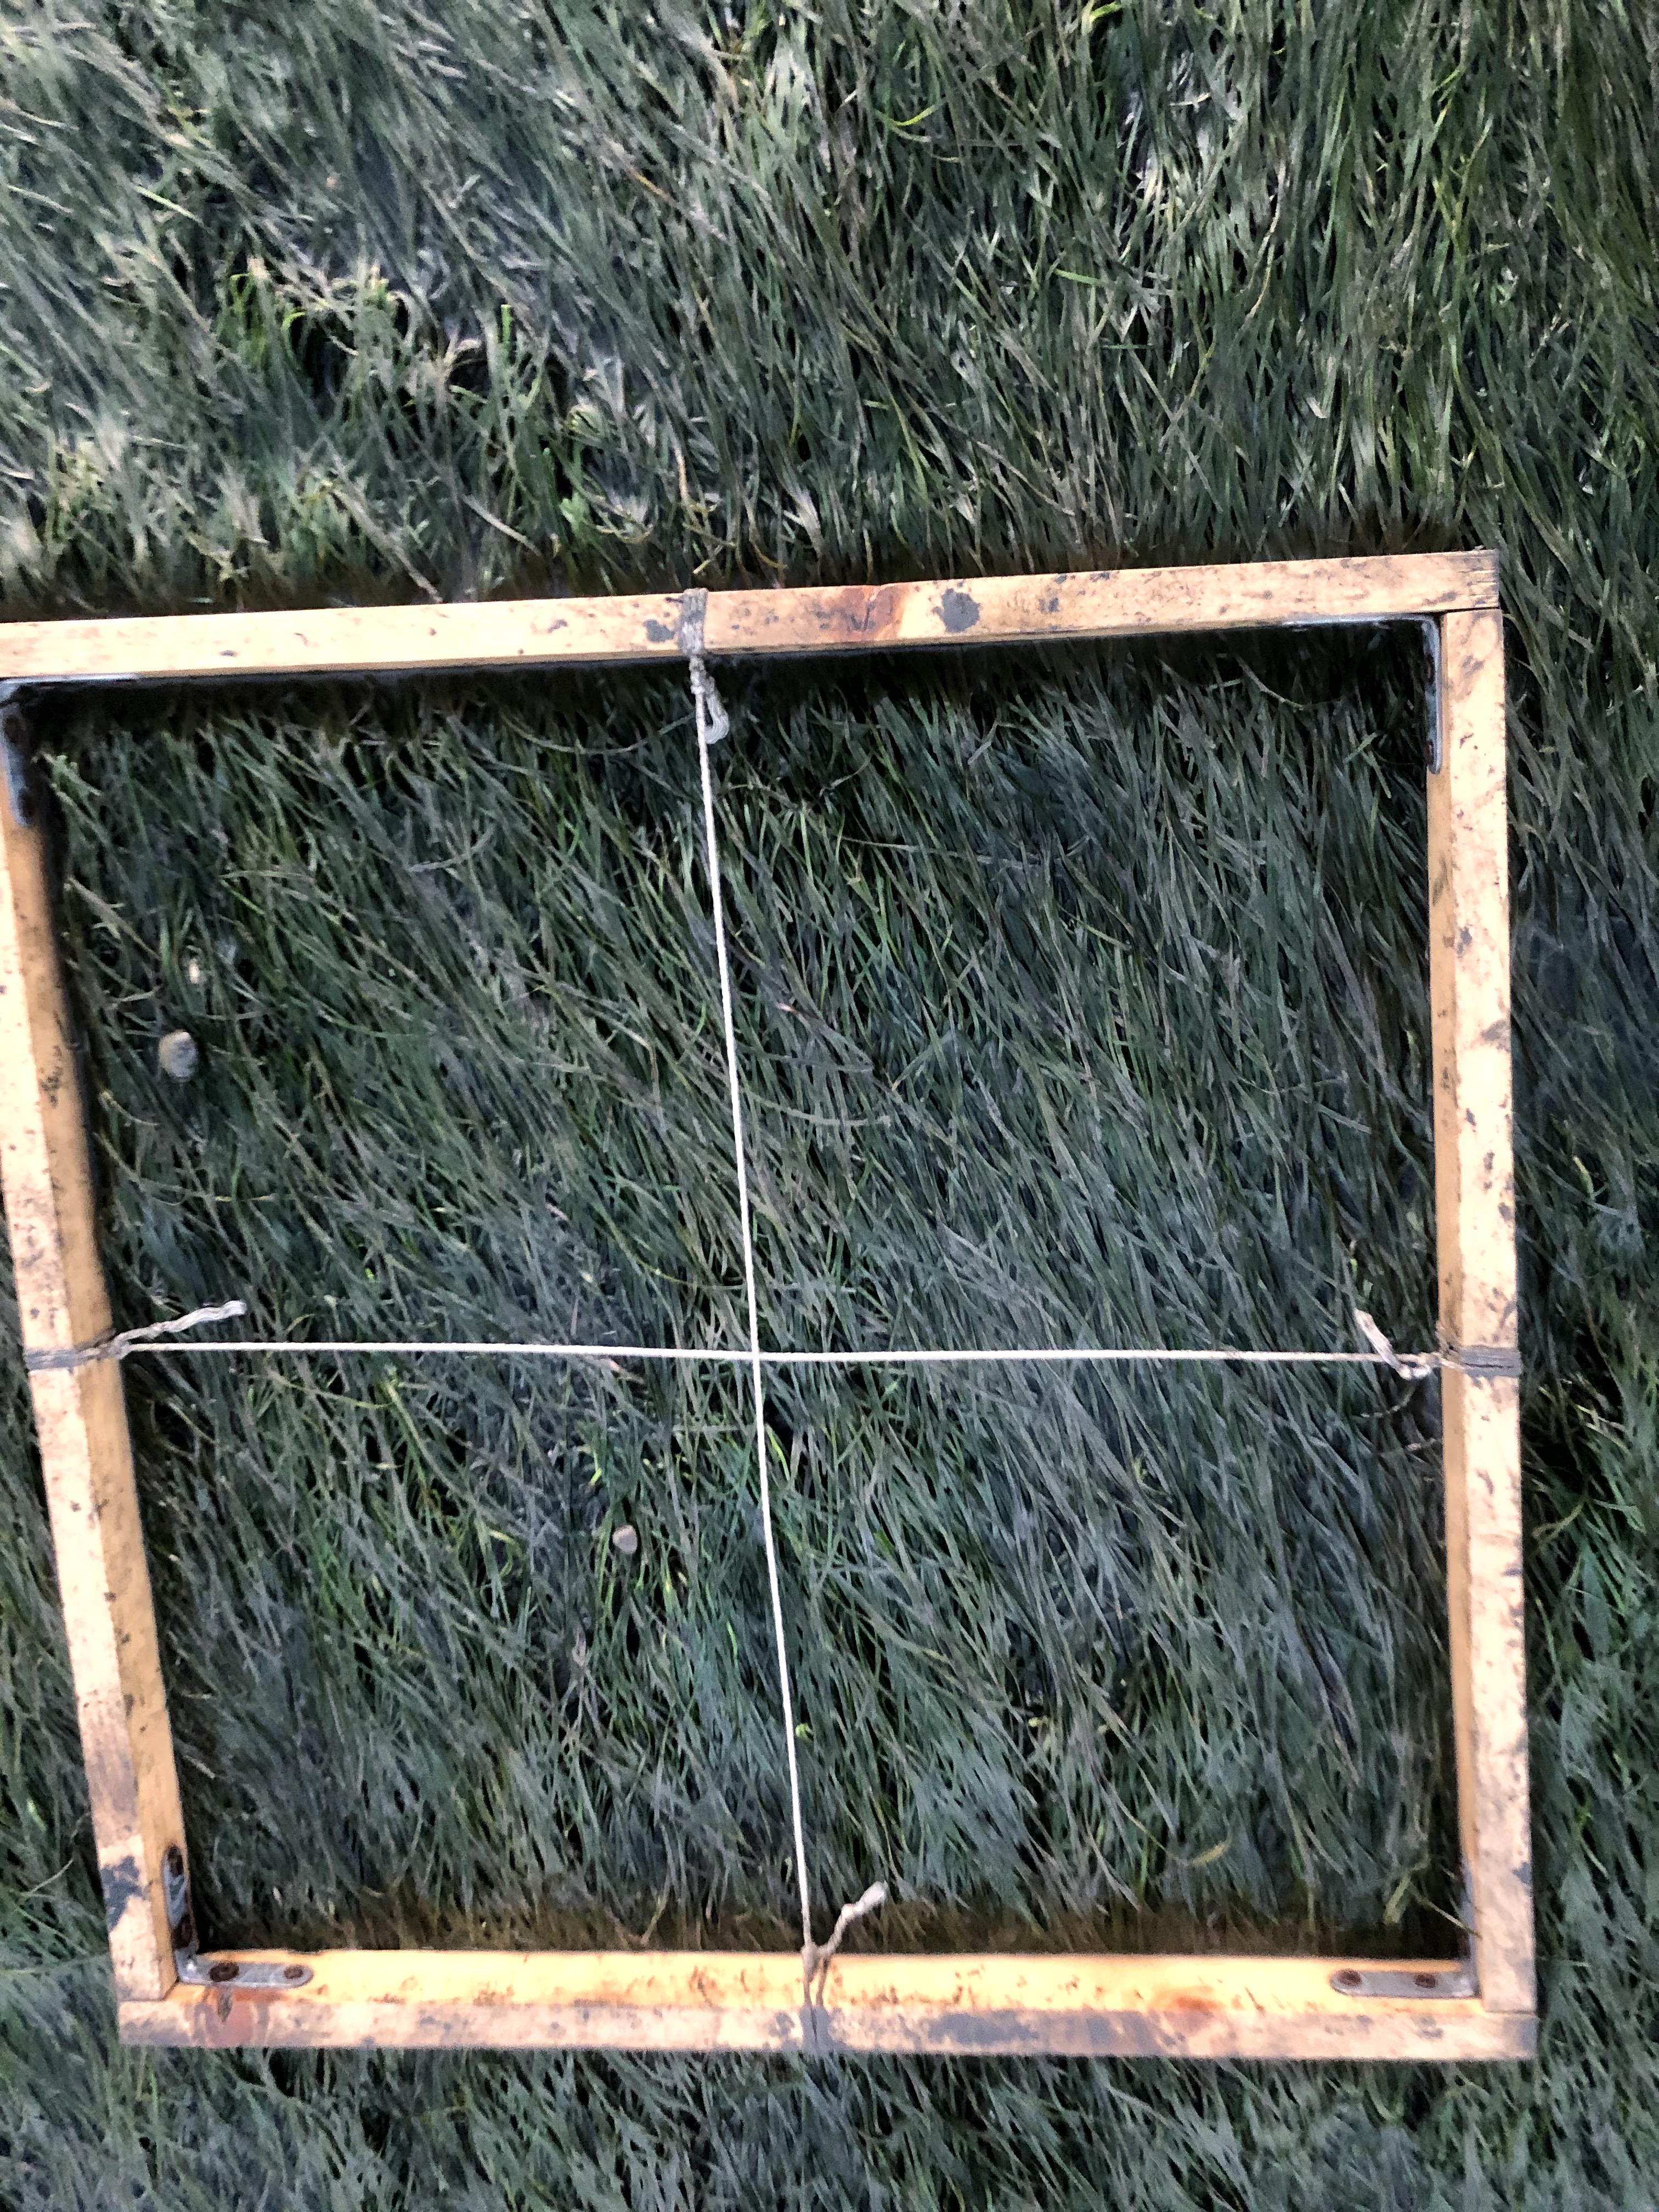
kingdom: Plantae
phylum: Tracheophyta
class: Liliopsida
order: Alismatales
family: Zosteraceae
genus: Zostera
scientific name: Zostera noltii
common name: Dwarf eelgrass
